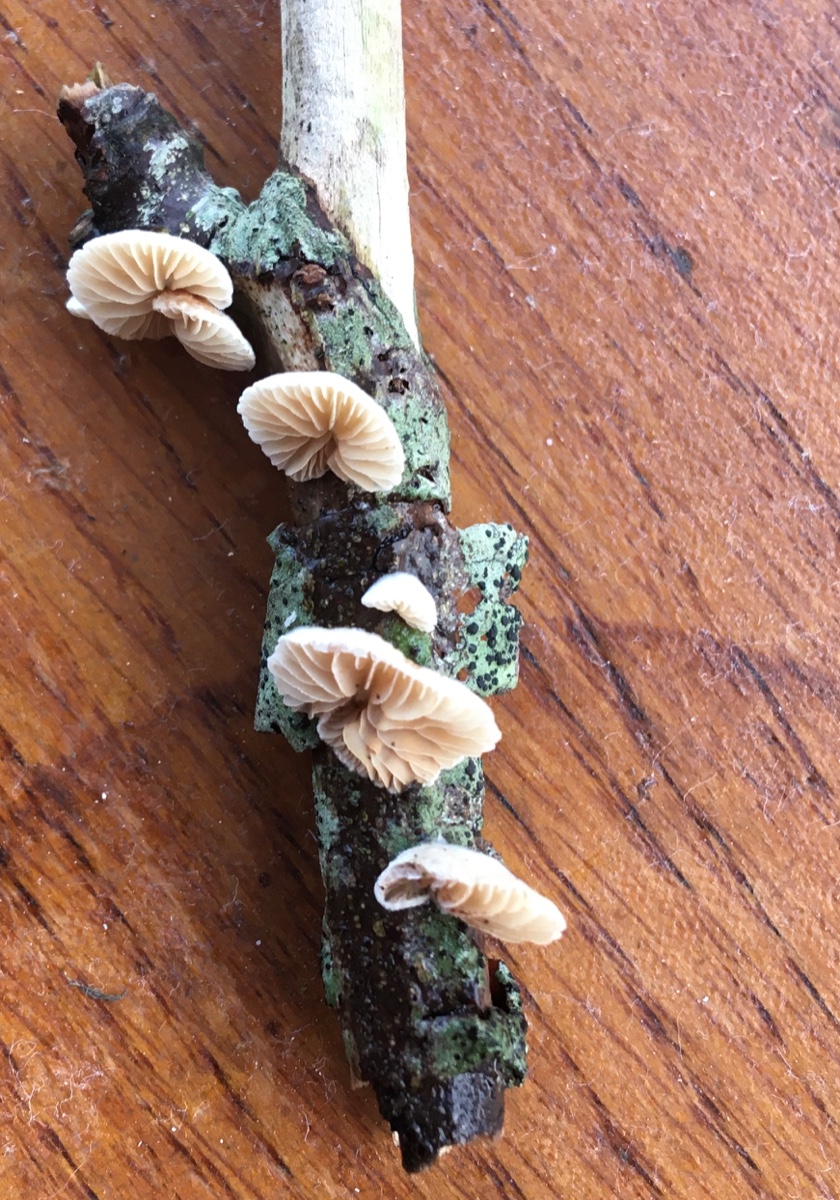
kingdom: Fungi
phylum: Basidiomycota
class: Agaricomycetes
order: Agaricales
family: Crepidotaceae
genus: Crepidotus
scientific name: Crepidotus cesatii
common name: almindelig muslingesvamp
